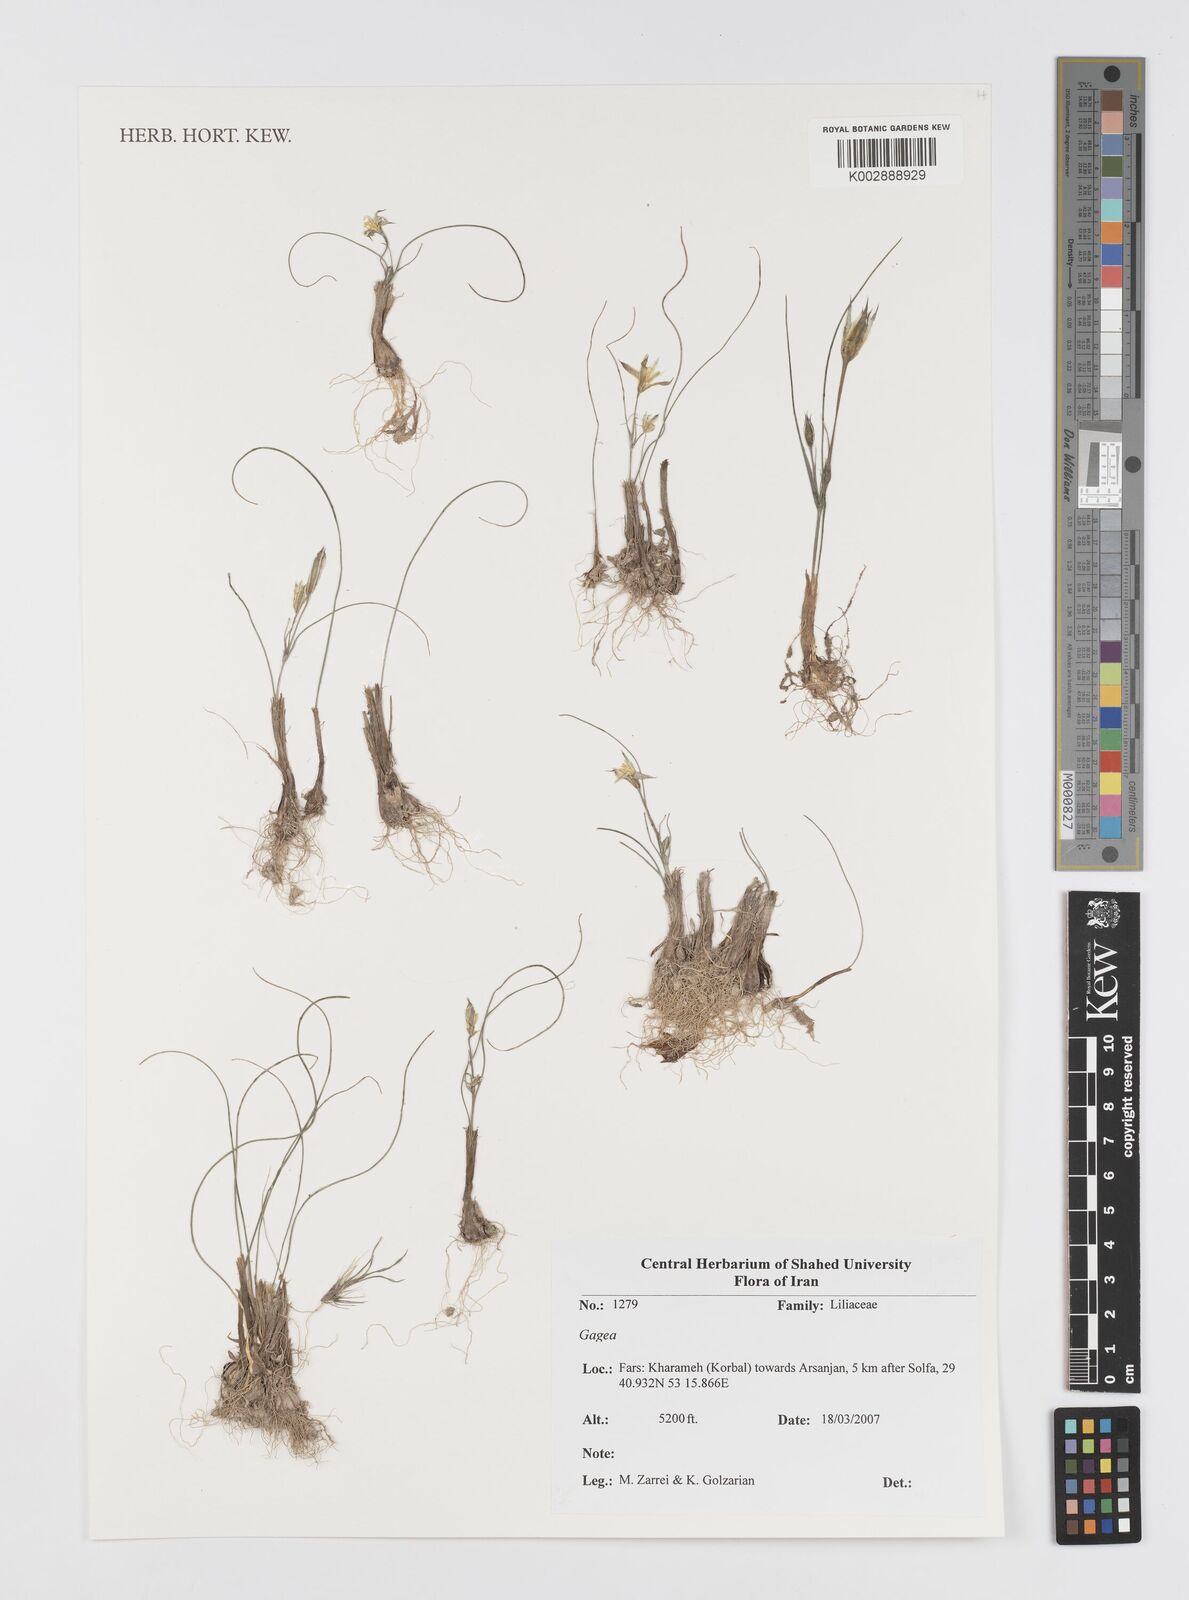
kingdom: Plantae
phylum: Tracheophyta
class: Liliopsida
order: Liliales
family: Liliaceae
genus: Gagea
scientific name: Gagea
